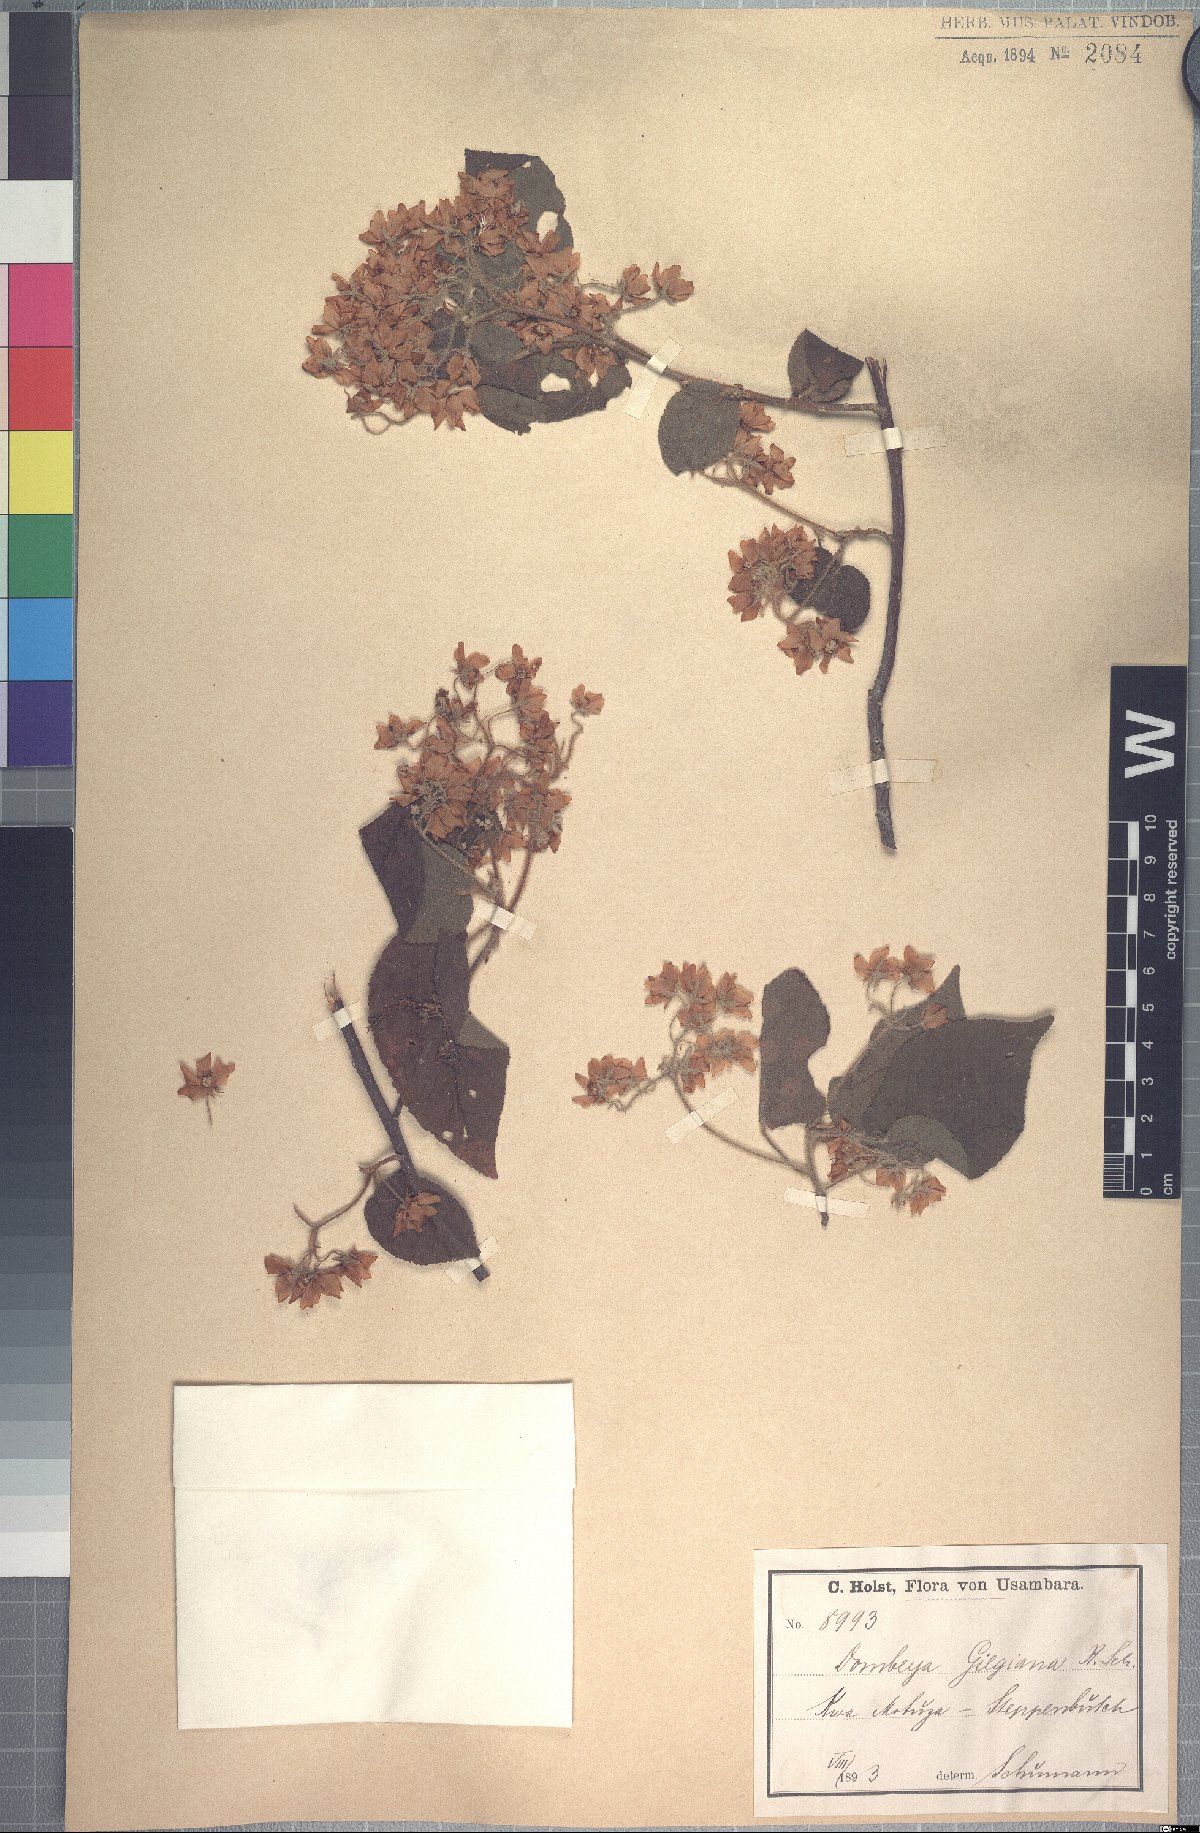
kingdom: Plantae
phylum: Tracheophyta
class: Magnoliopsida
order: Malvales
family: Malvaceae
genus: Dombeya
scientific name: Dombeya kirkii
